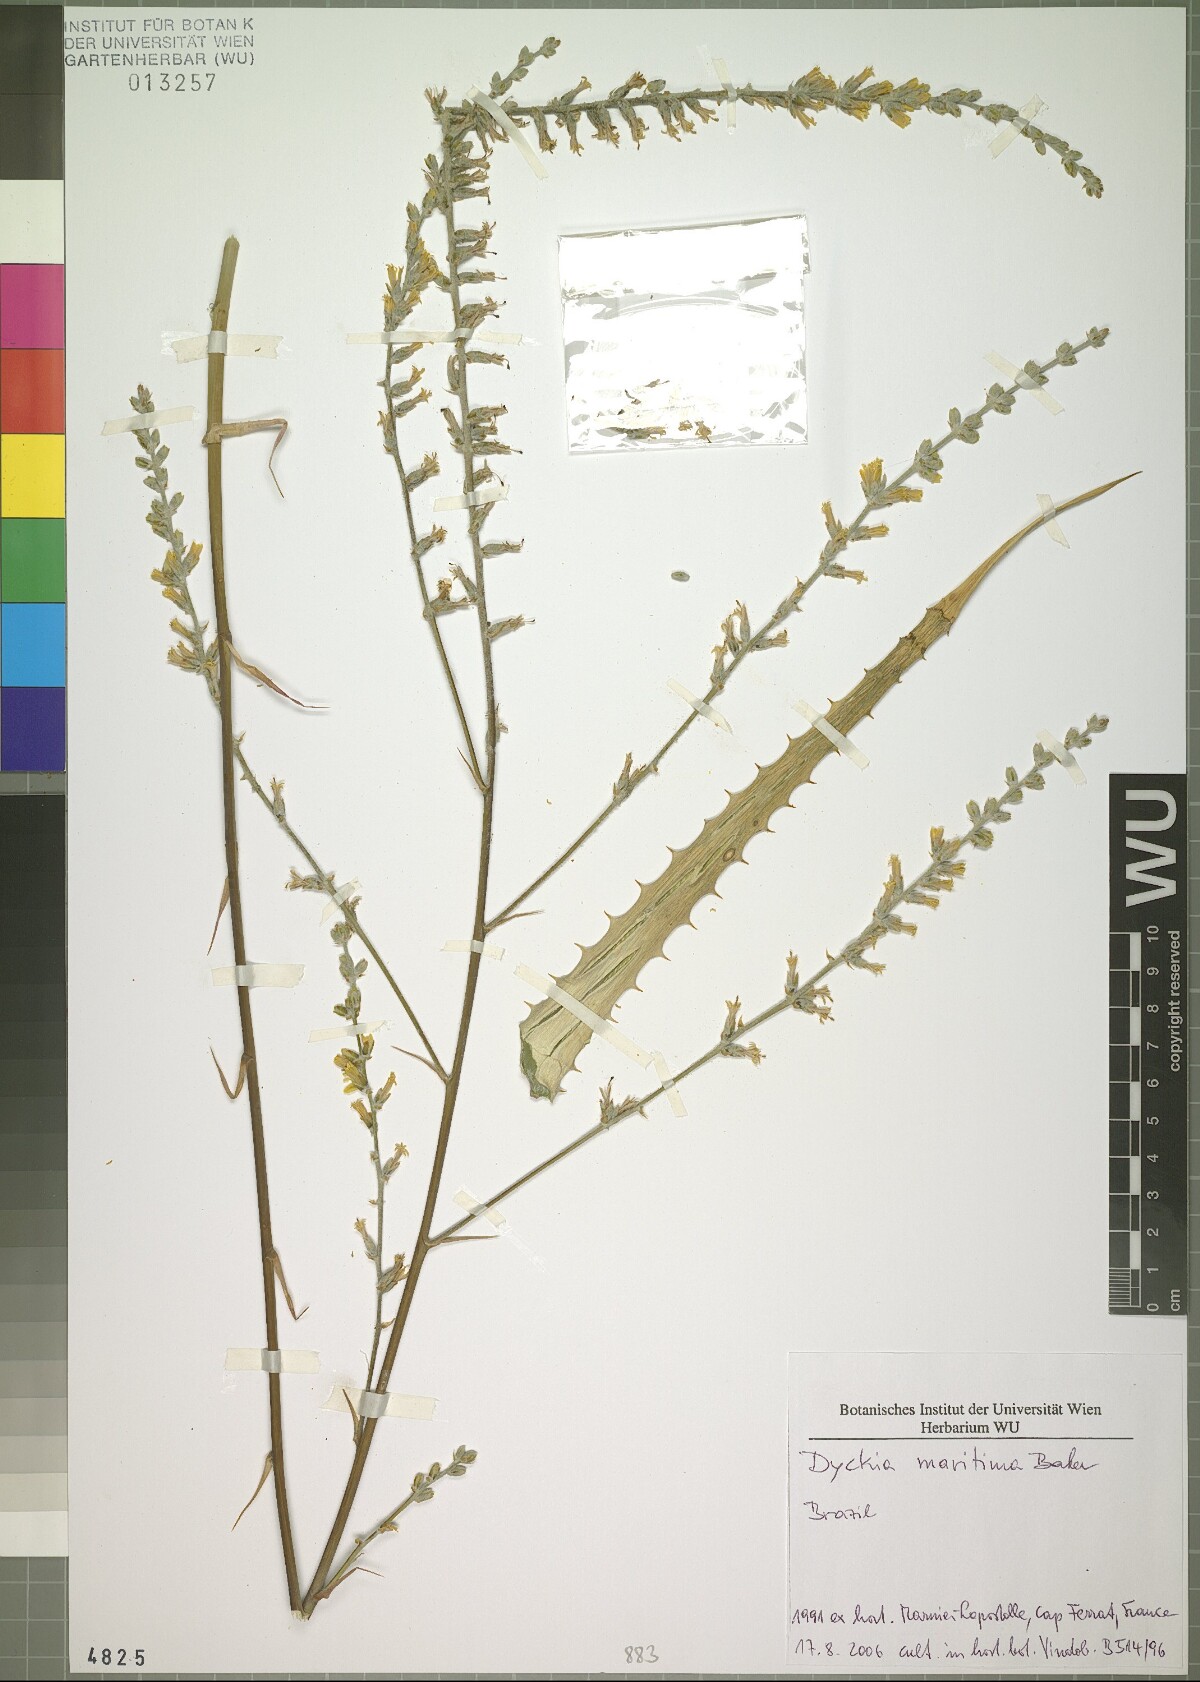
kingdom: Plantae
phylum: Tracheophyta
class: Liliopsida
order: Poales
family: Bromeliaceae
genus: Dyckia
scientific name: Dyckia maritima
